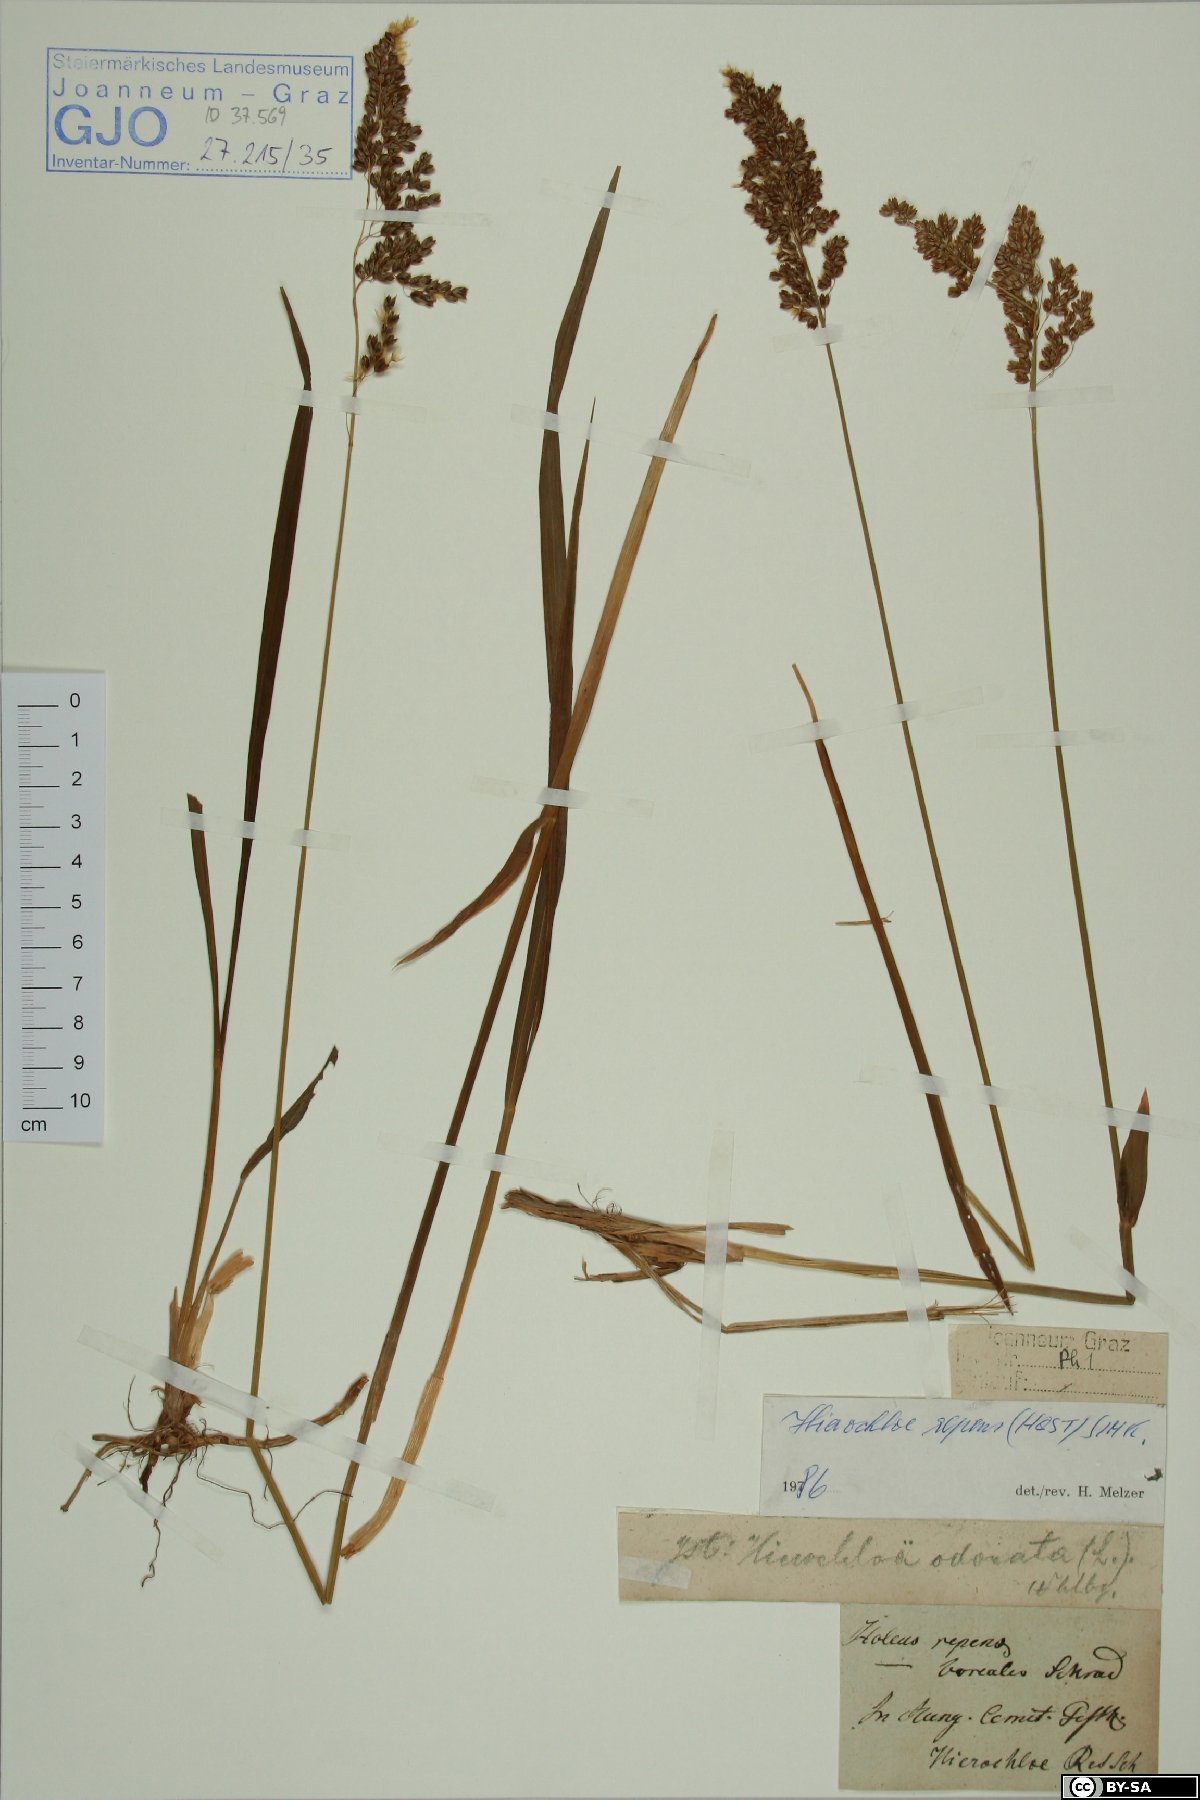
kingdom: Plantae
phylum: Tracheophyta
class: Liliopsida
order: Poales
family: Poaceae
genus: Anthoxanthum
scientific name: Anthoxanthum repens
